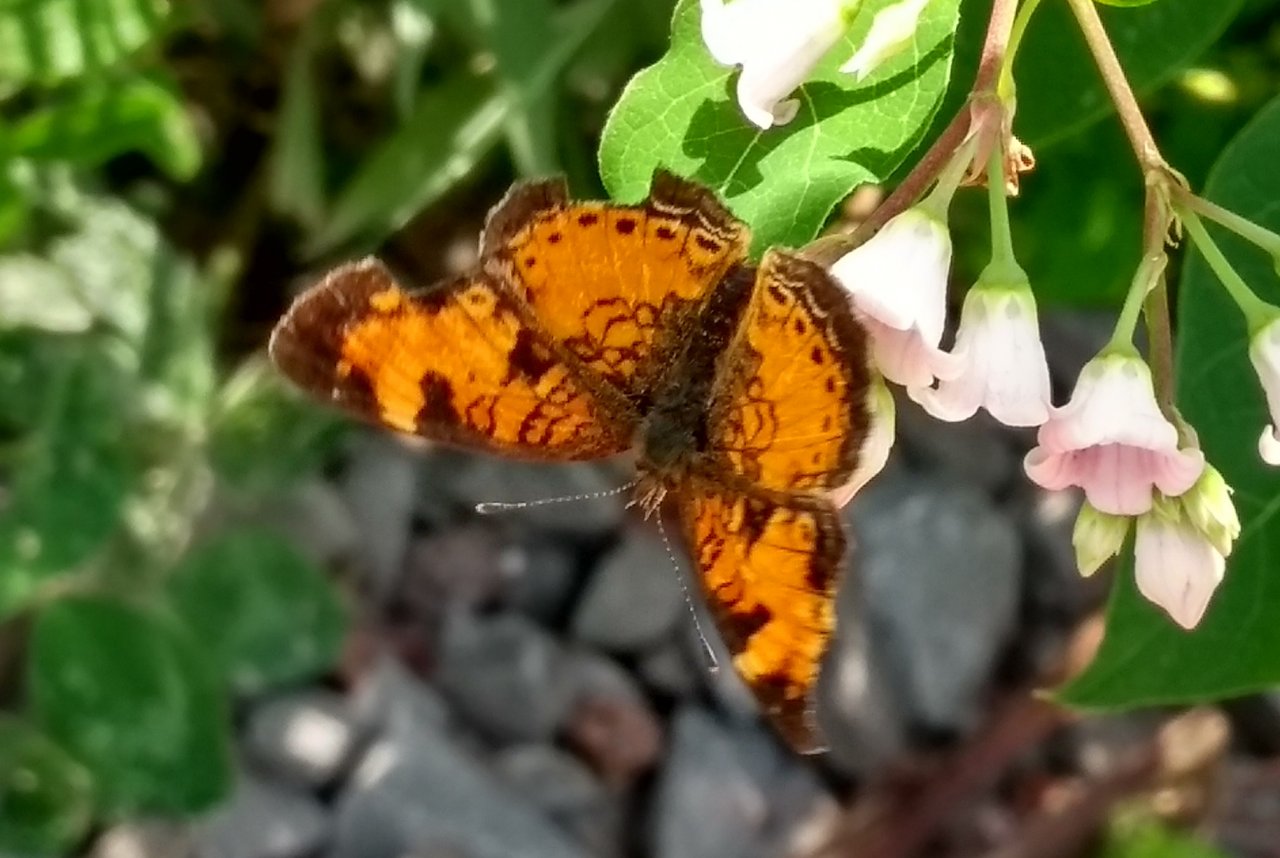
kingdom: Animalia
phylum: Arthropoda
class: Insecta
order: Lepidoptera
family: Nymphalidae
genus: Phyciodes
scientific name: Phyciodes tharos
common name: Northern Crescent
